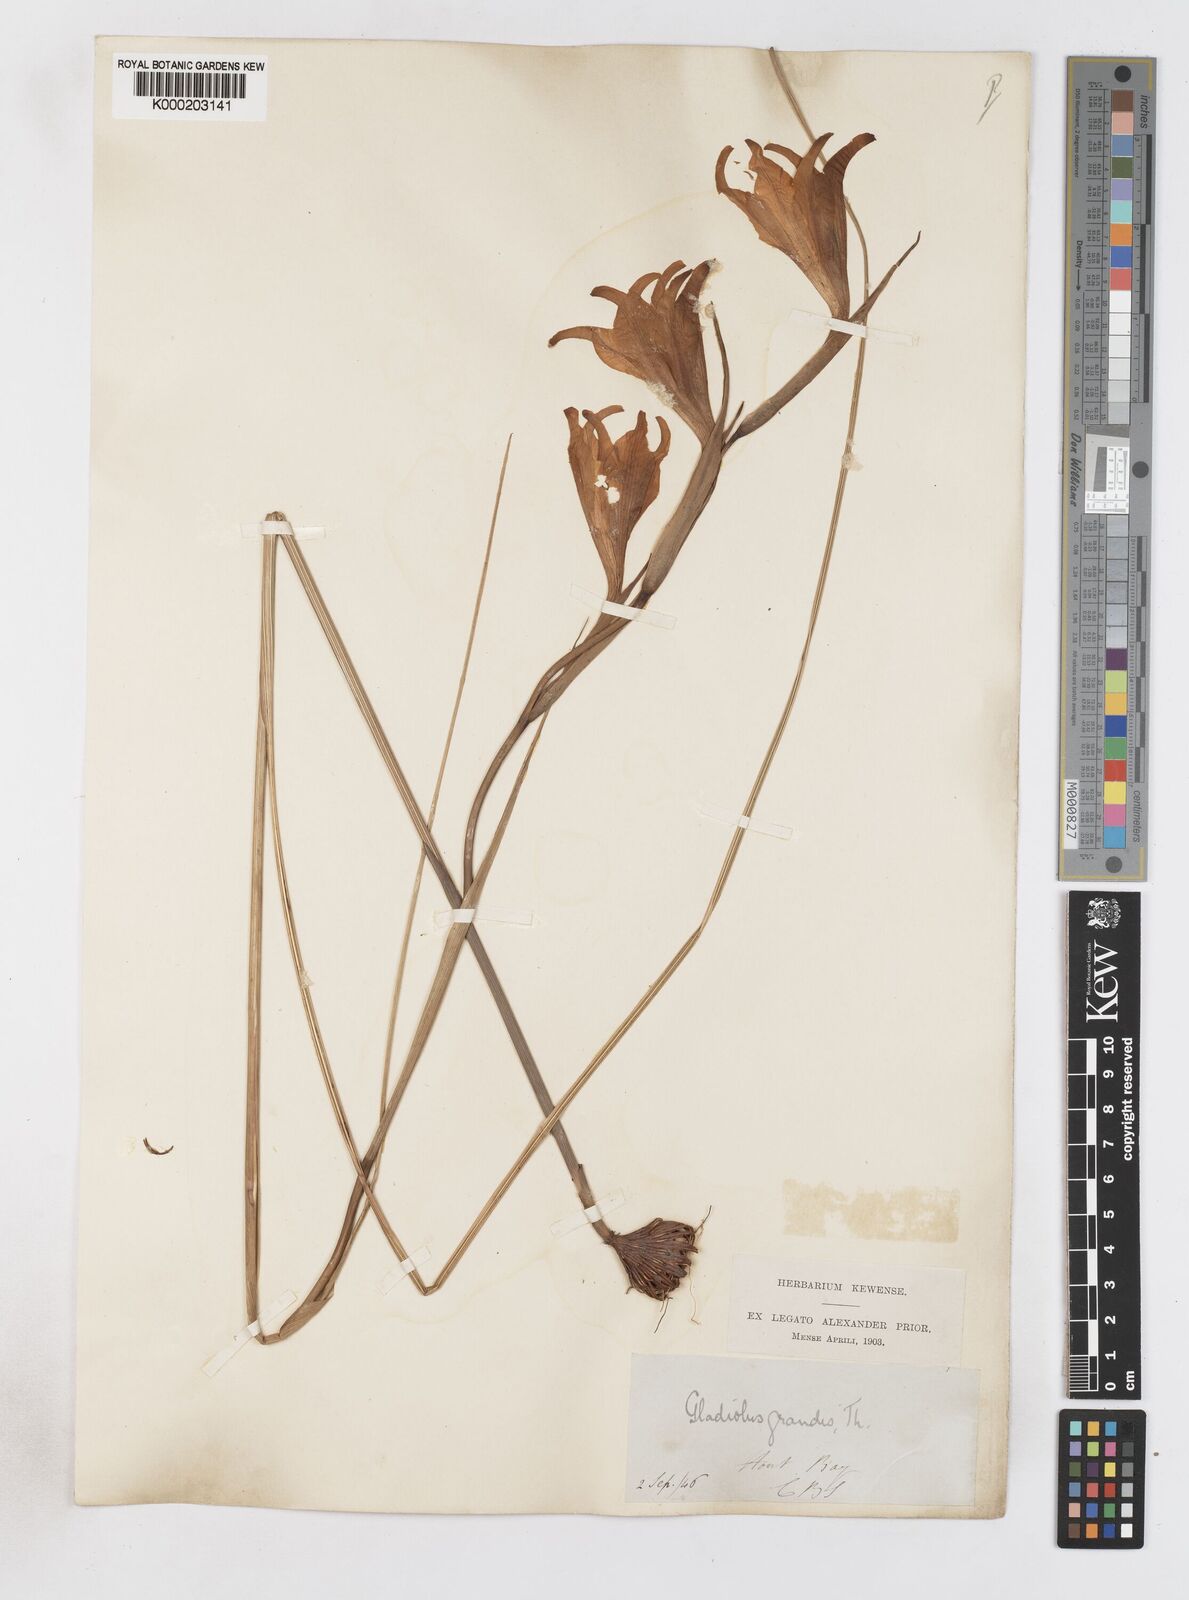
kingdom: Plantae
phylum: Tracheophyta
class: Liliopsida
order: Asparagales
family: Iridaceae
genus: Gladiolus
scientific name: Gladiolus liliaceus
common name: Large brown afrikaner
